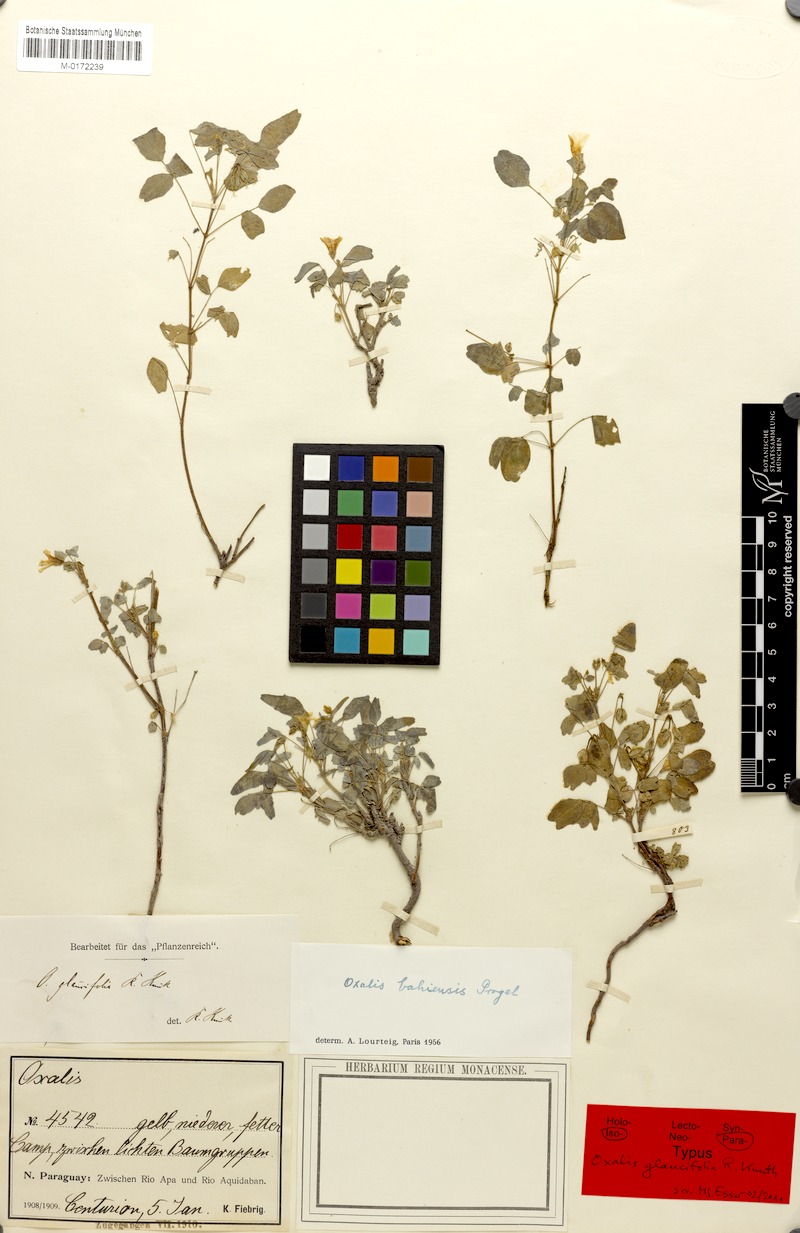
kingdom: Plantae
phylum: Tracheophyta
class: Magnoliopsida
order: Oxalidales
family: Oxalidaceae
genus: Oxalis
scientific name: Oxalis frutescens
